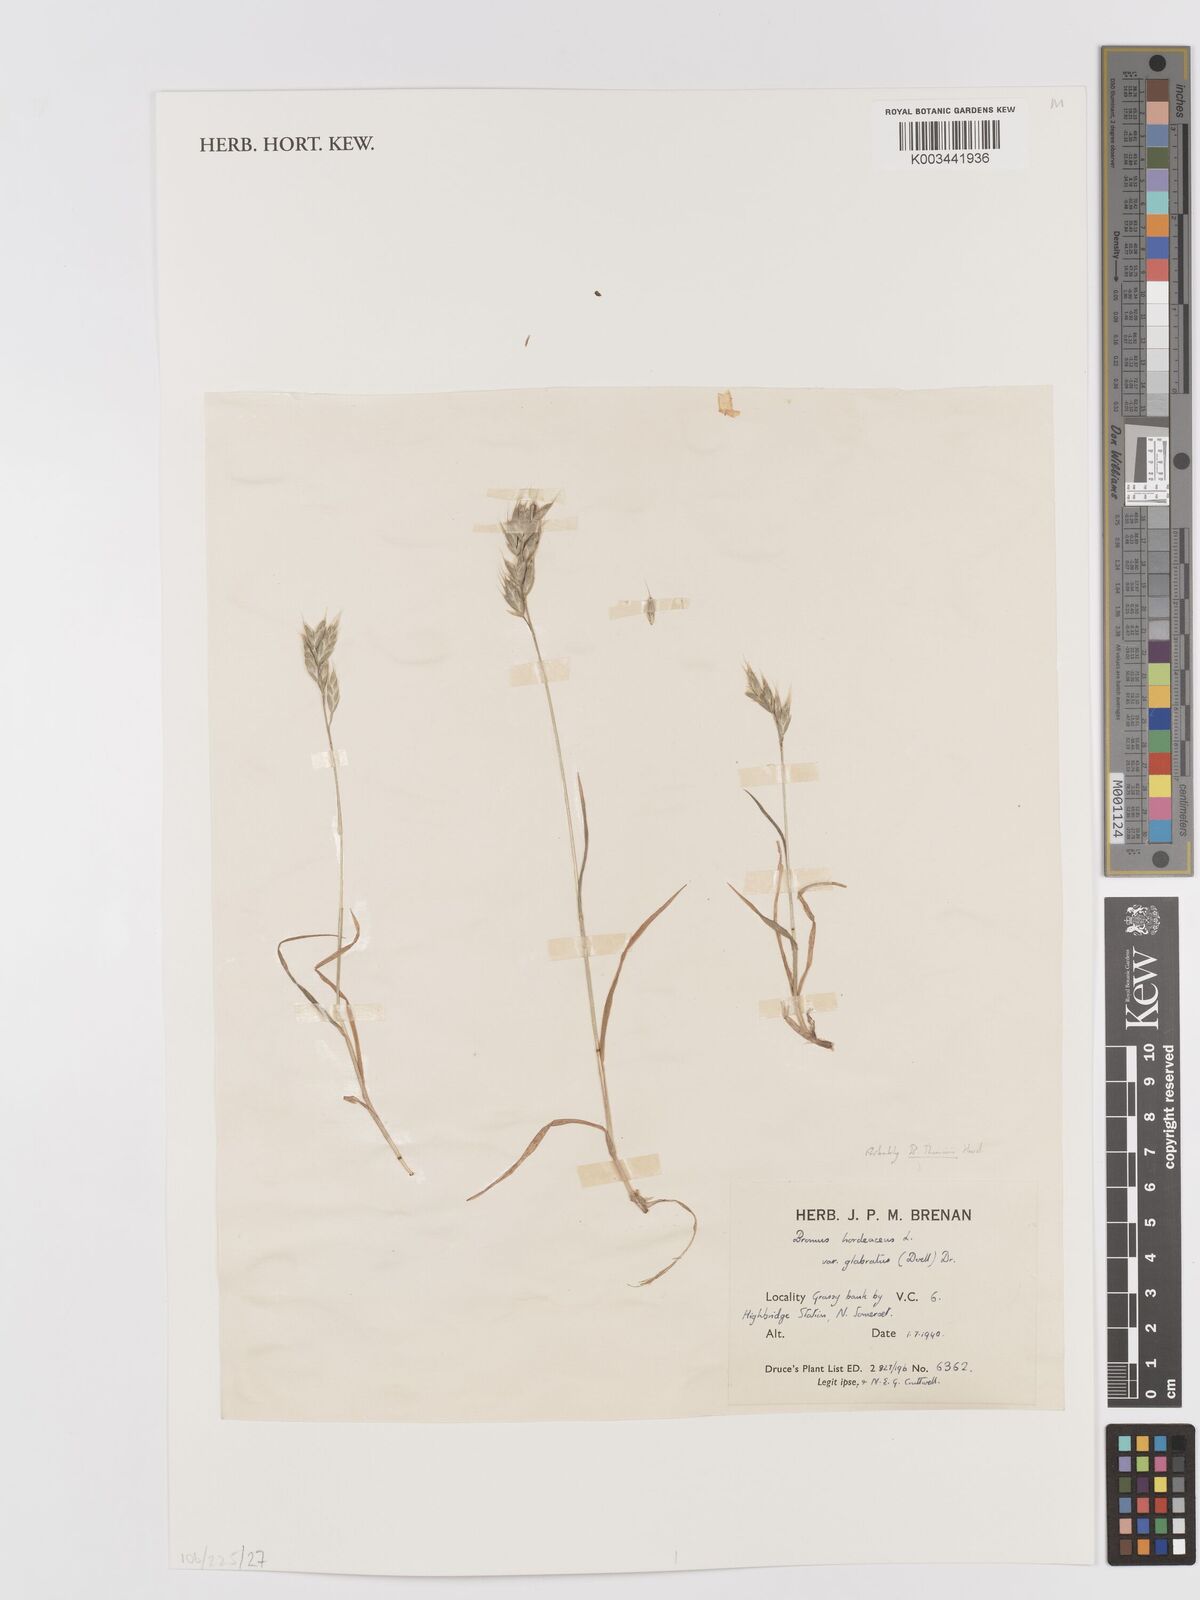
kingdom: Plantae
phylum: Tracheophyta
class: Liliopsida
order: Poales
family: Poaceae
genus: Bromus
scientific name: Bromus hordeaceus
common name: Soft brome
